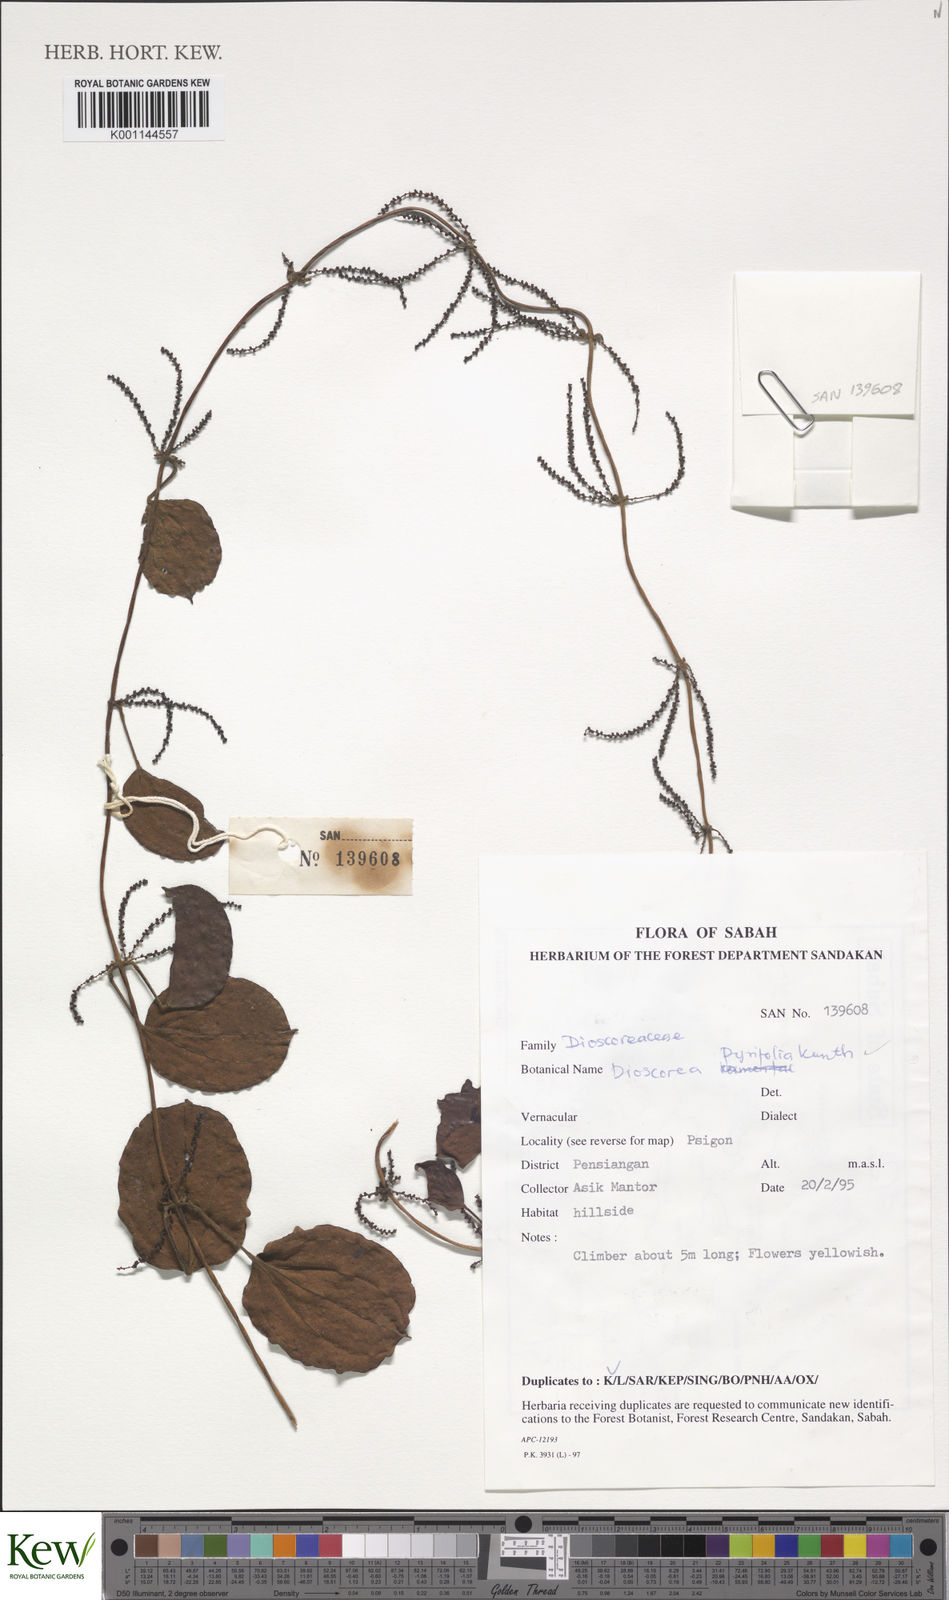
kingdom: Plantae
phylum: Tracheophyta
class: Liliopsida
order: Dioscoreales
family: Dioscoreaceae
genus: Dioscorea
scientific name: Dioscorea pyrifolia
